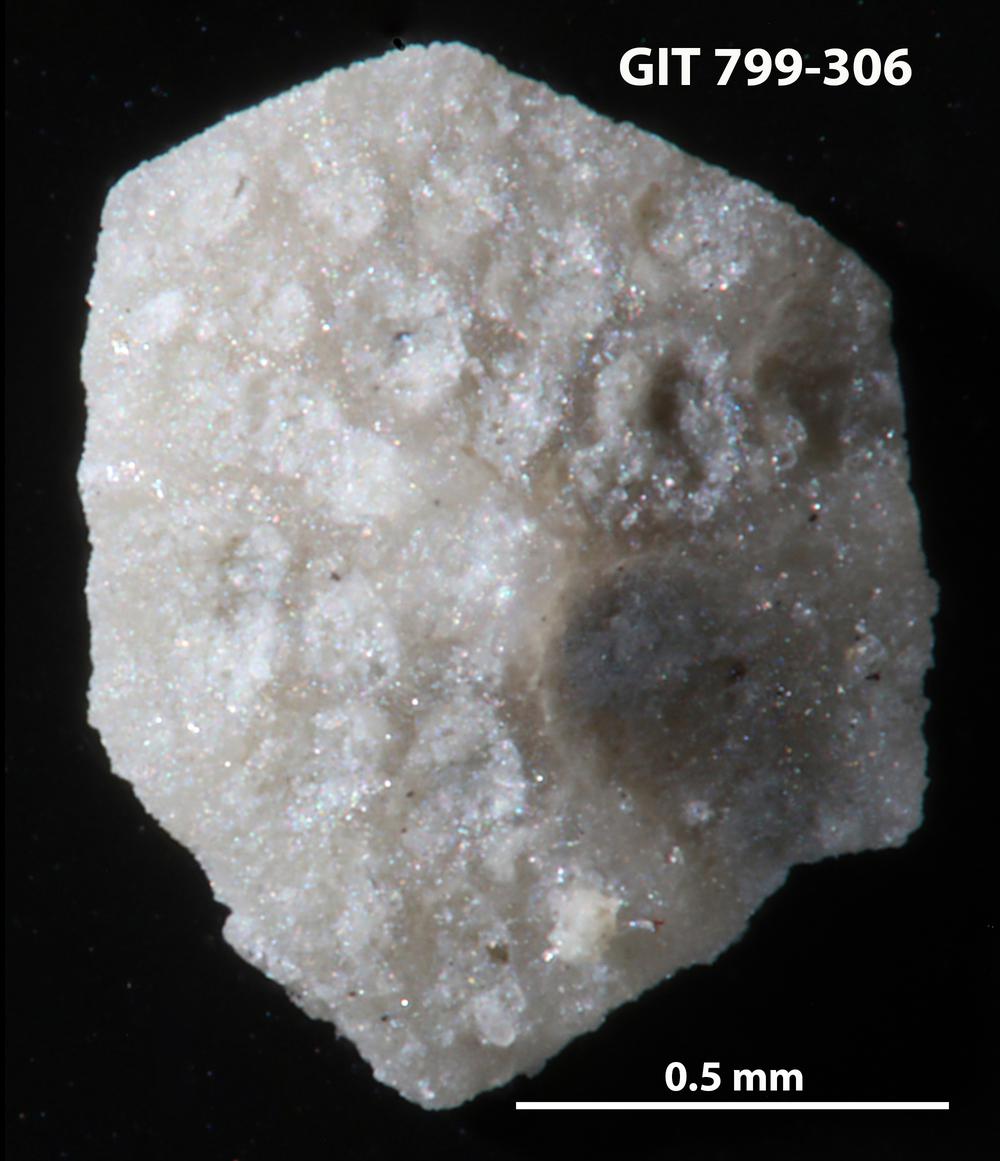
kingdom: Animalia
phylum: Echinodermata
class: Echinoidea
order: Bothriocidaroida
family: Bothriocidaridae
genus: Neobothriocidaris
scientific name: Neobothriocidaris
